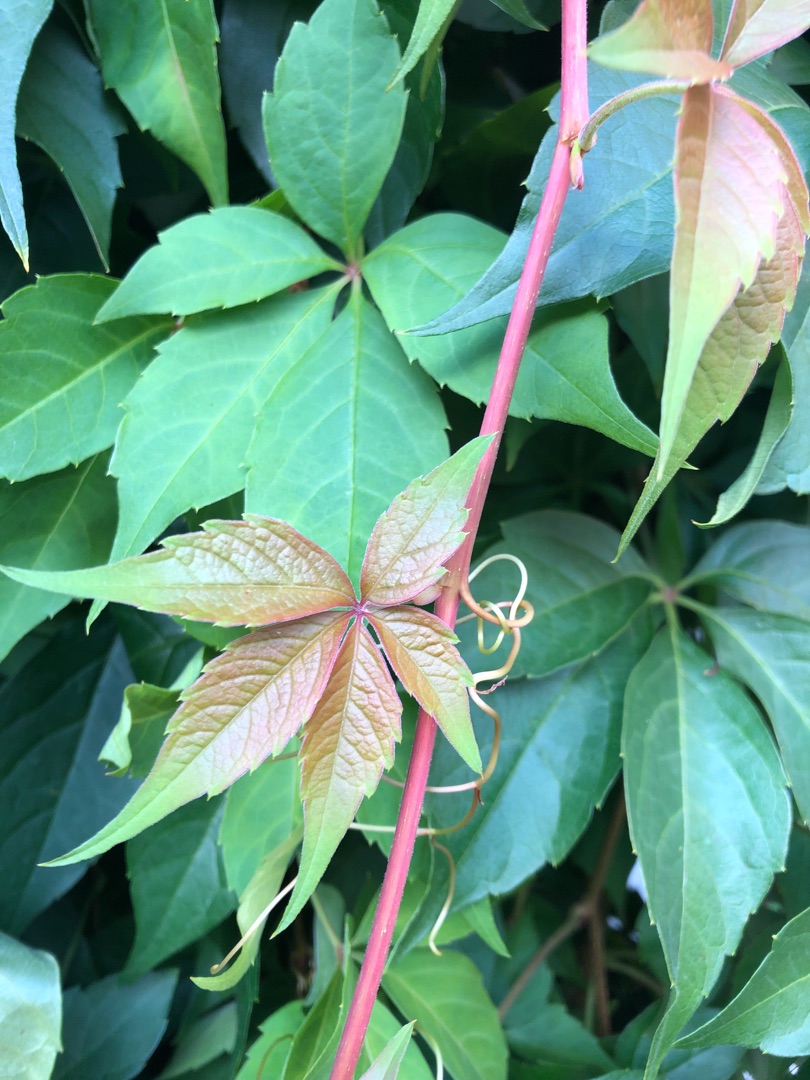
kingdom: Plantae
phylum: Tracheophyta
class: Magnoliopsida
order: Vitales
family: Vitaceae
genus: Parthenocissus
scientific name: Parthenocissus inserta
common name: Vildvin
